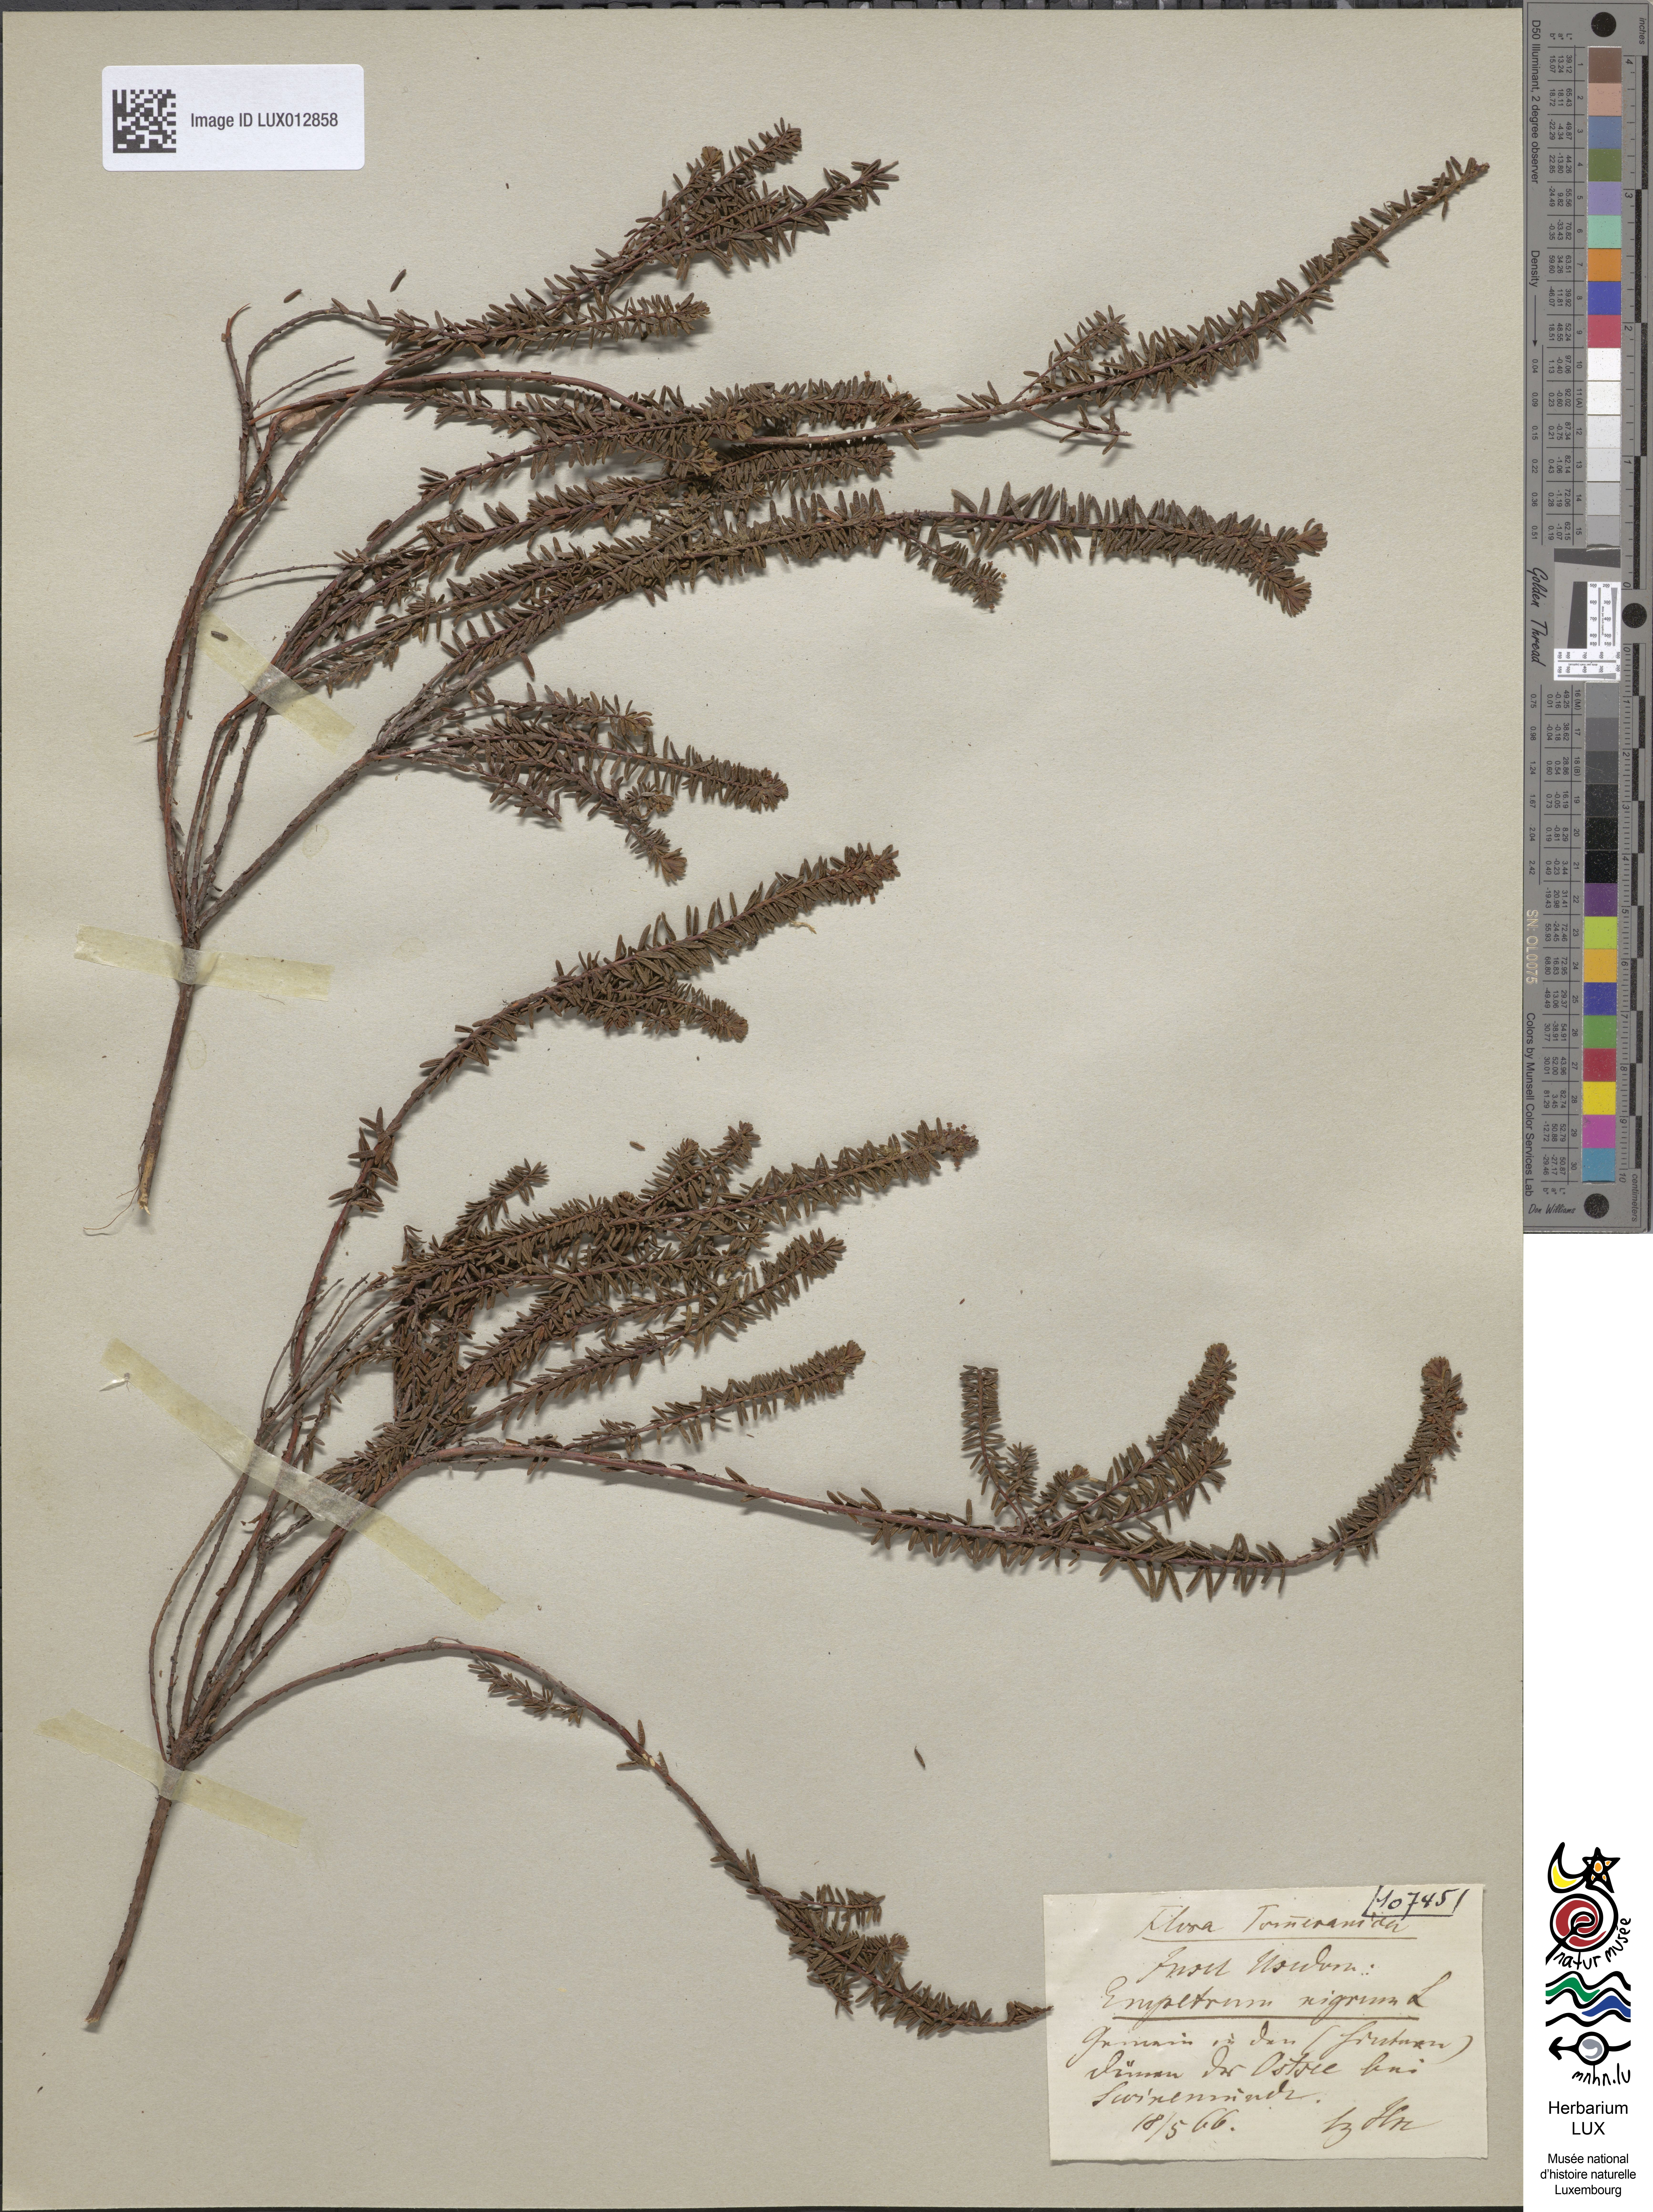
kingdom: Plantae
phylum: Tracheophyta
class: Magnoliopsida
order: Ericales
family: Ericaceae
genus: Empetrum
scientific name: Empetrum nigrum
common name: Black crowberry
